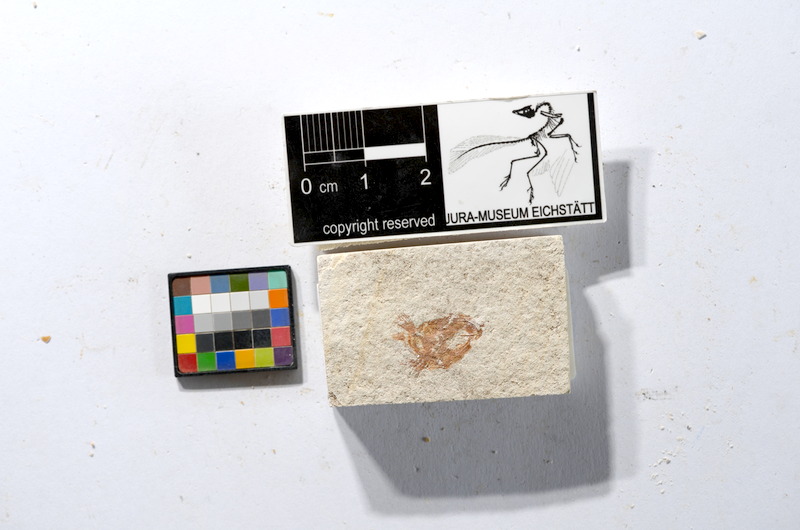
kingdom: Animalia
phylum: Chordata
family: Ascalaboidae
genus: Tharsis
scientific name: Tharsis dubius
